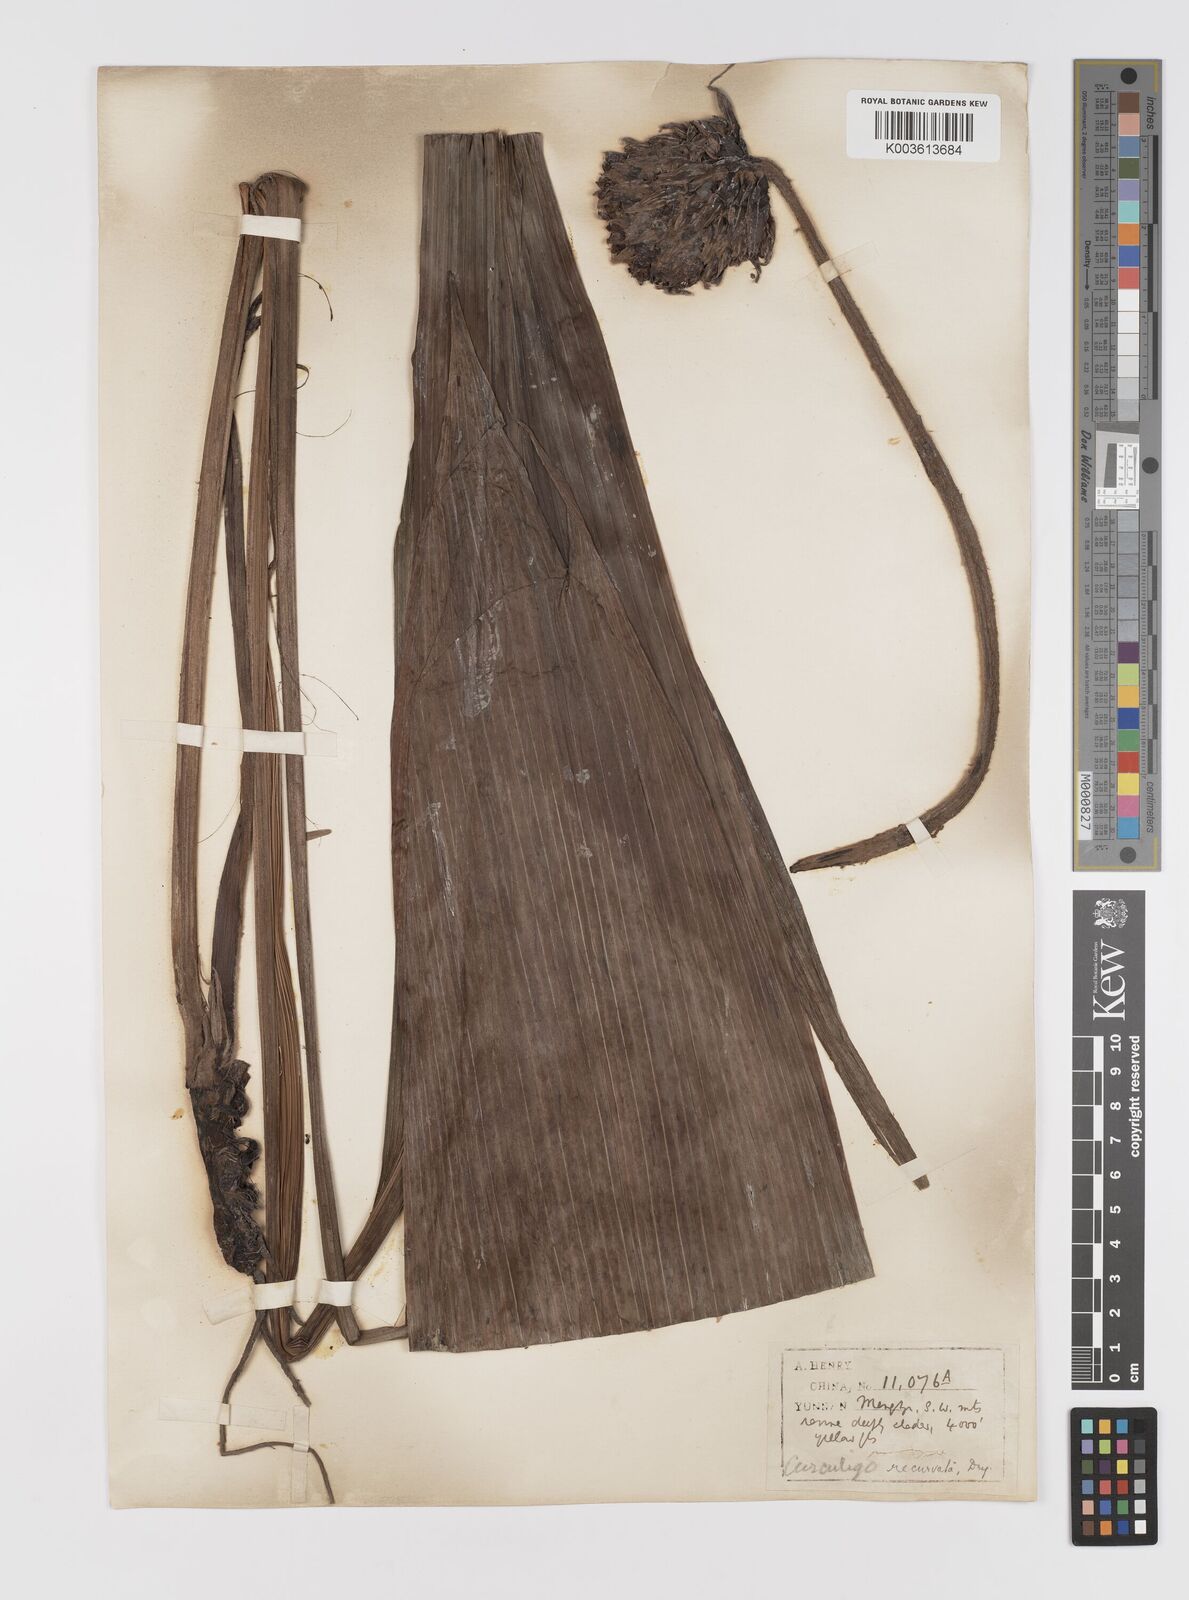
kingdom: Plantae
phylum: Tracheophyta
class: Liliopsida
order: Asparagales
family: Hypoxidaceae
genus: Curculigo
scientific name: Curculigo capitulata
